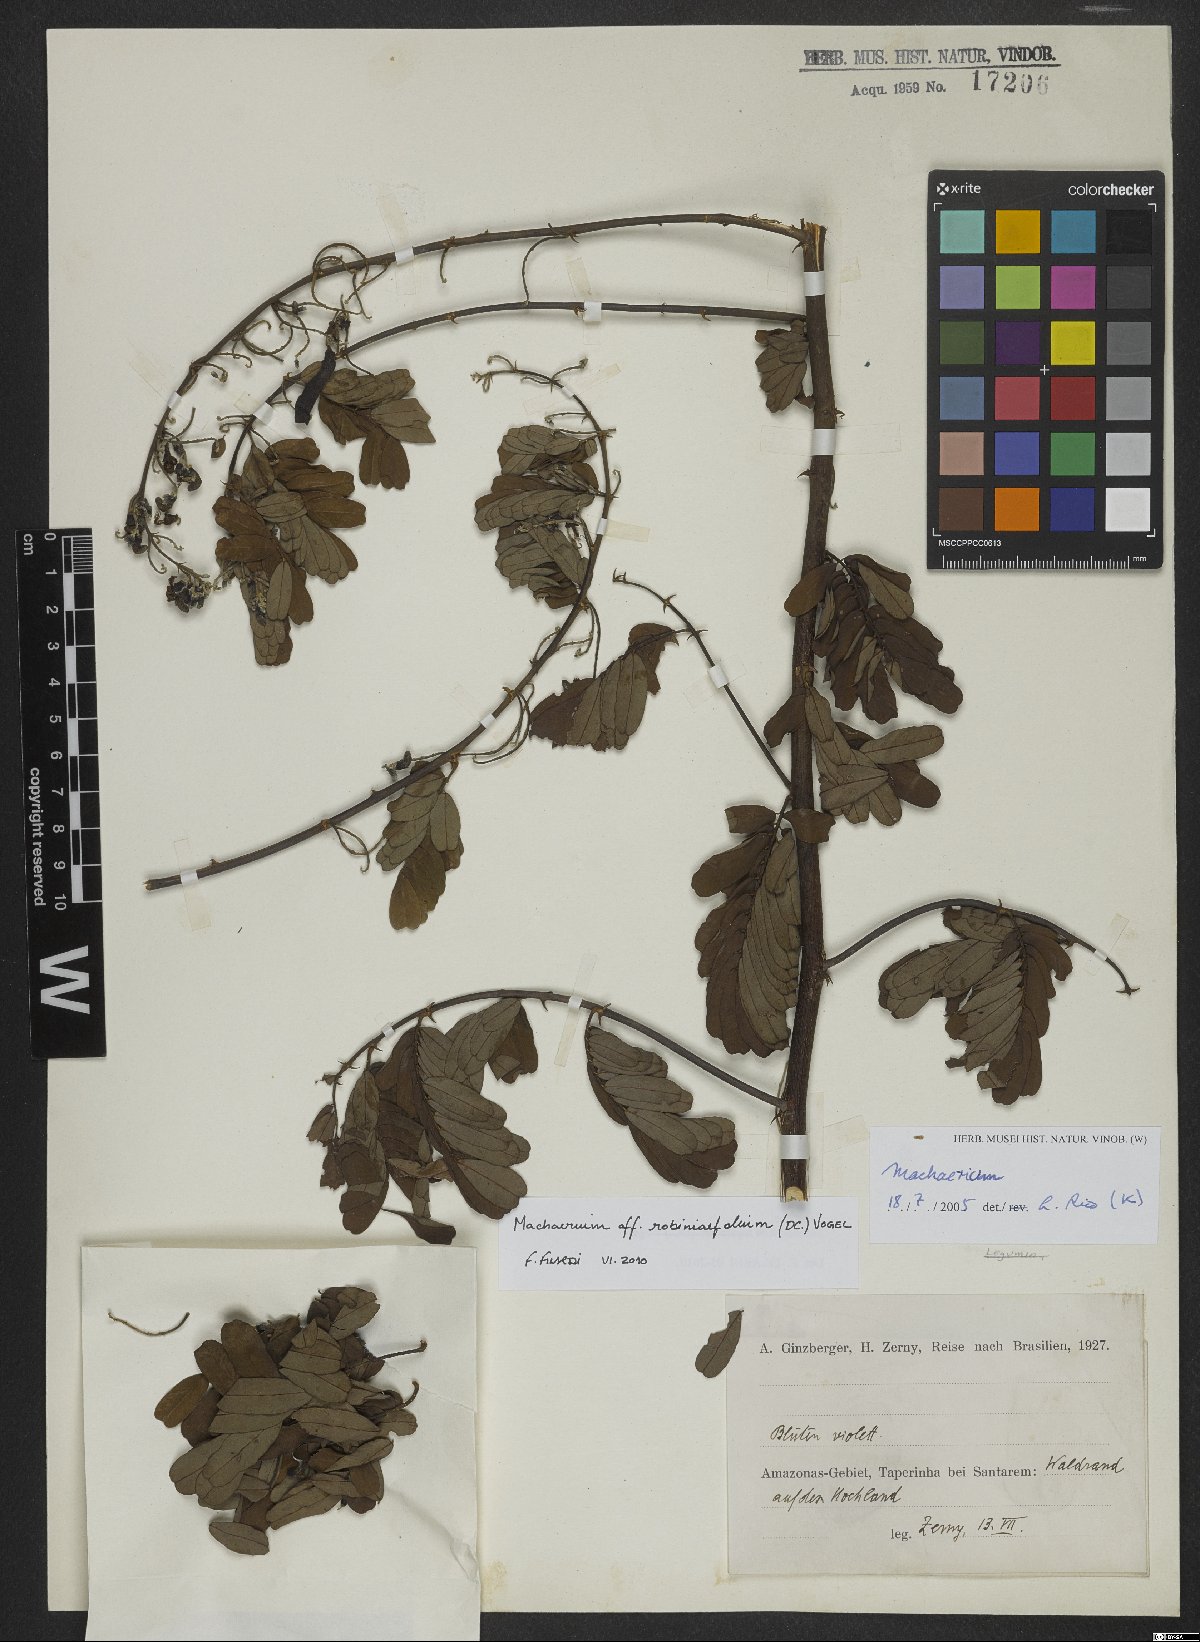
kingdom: Plantae
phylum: Tracheophyta
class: Magnoliopsida
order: Fabales
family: Fabaceae
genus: Machaerium
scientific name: Machaerium robiniifolium
